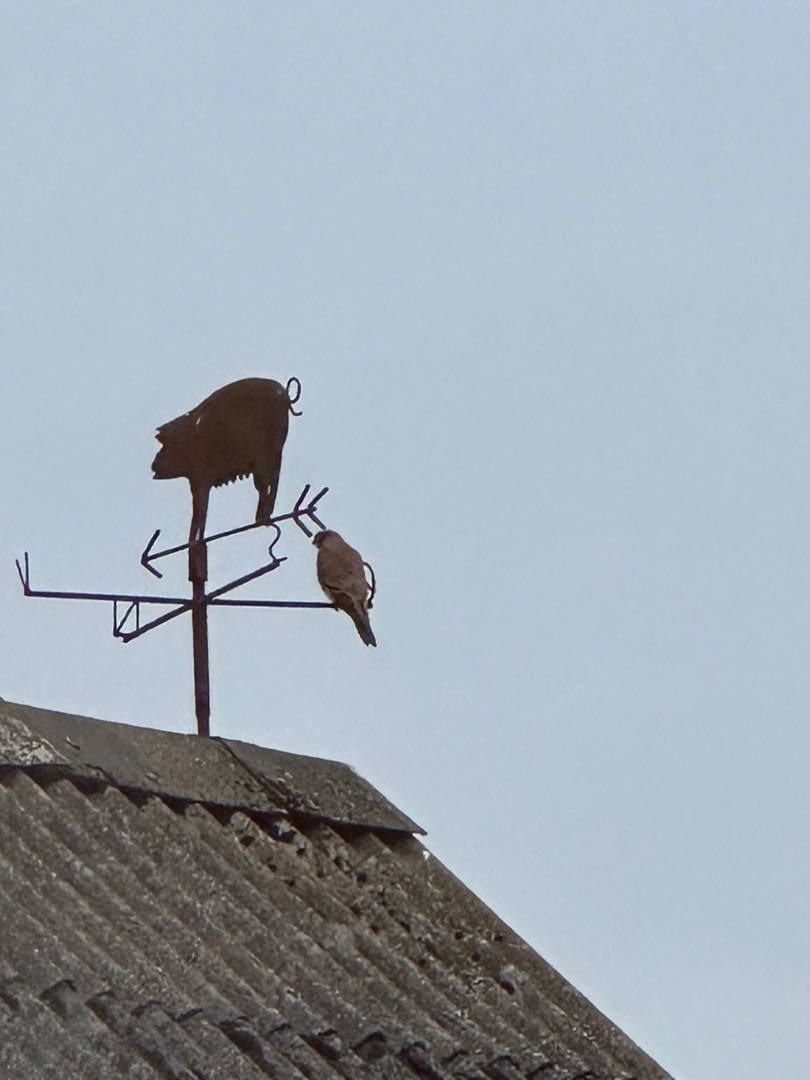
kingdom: Animalia
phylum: Chordata
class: Aves
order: Falconiformes
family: Falconidae
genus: Falco
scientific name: Falco tinnunculus
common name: Tårnfalk
